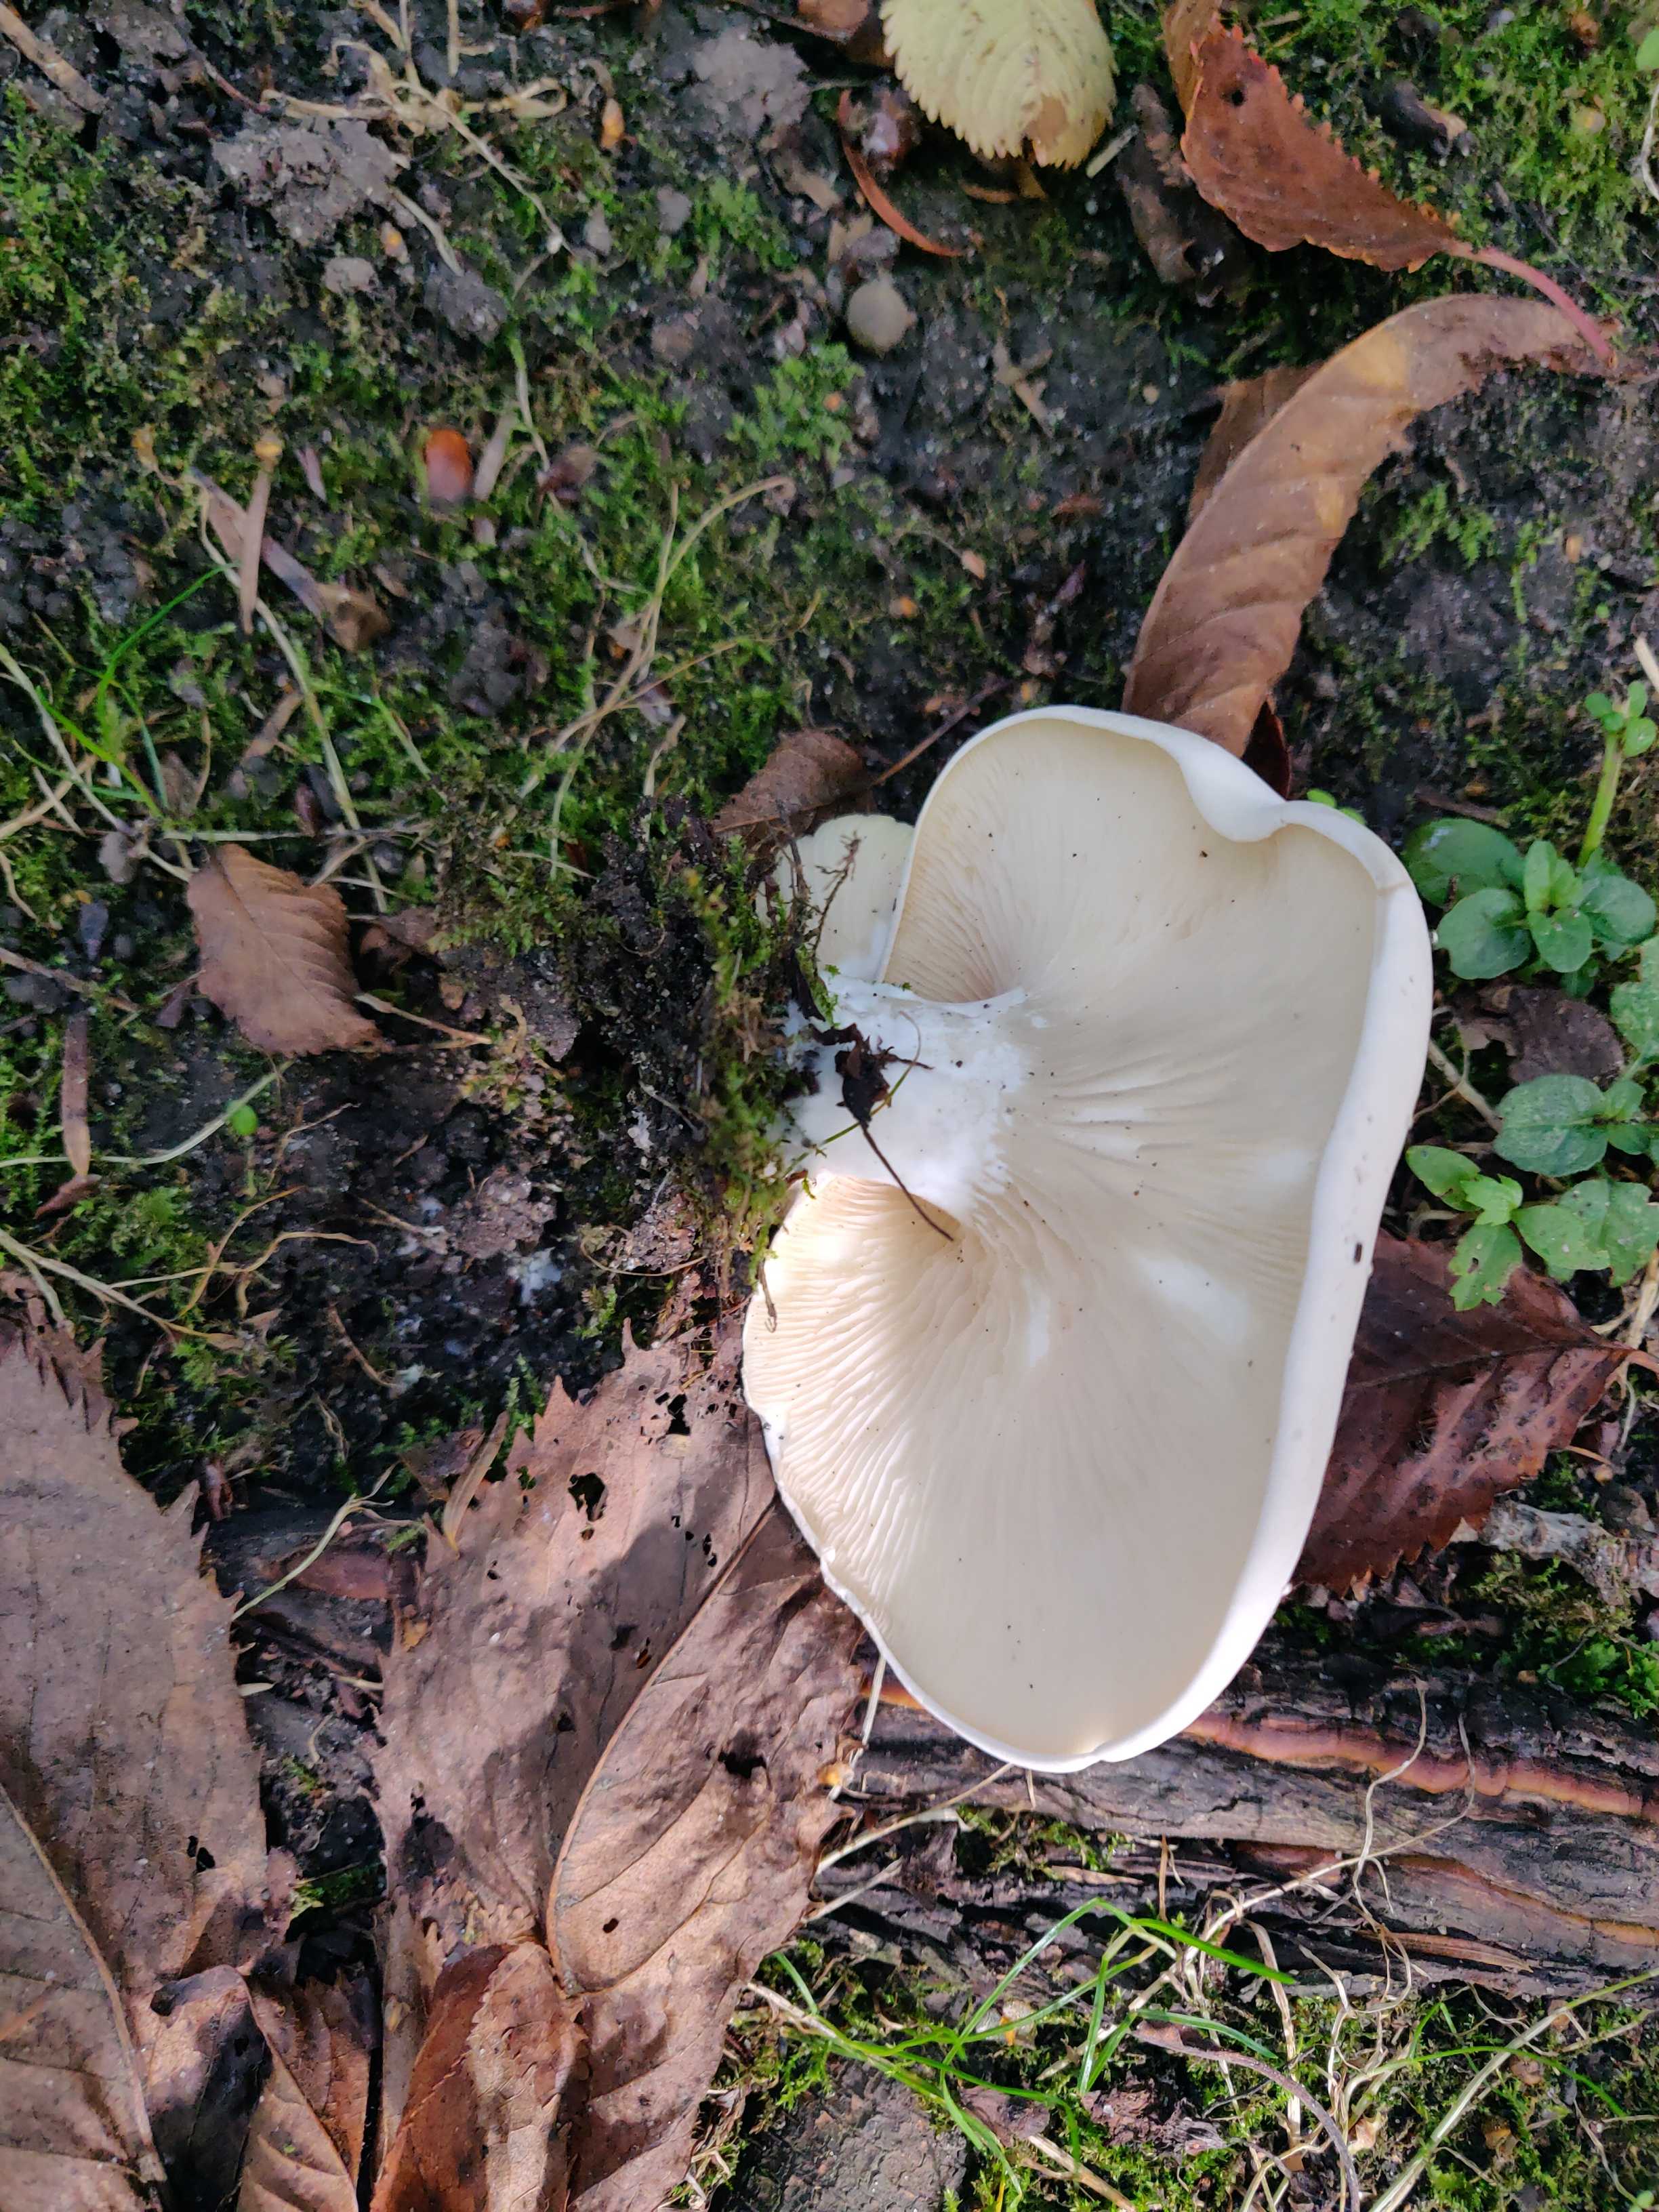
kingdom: Fungi
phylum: Basidiomycota
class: Agaricomycetes
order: Agaricales
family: Entolomataceae
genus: Clitopilus
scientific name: Clitopilus prunulus
